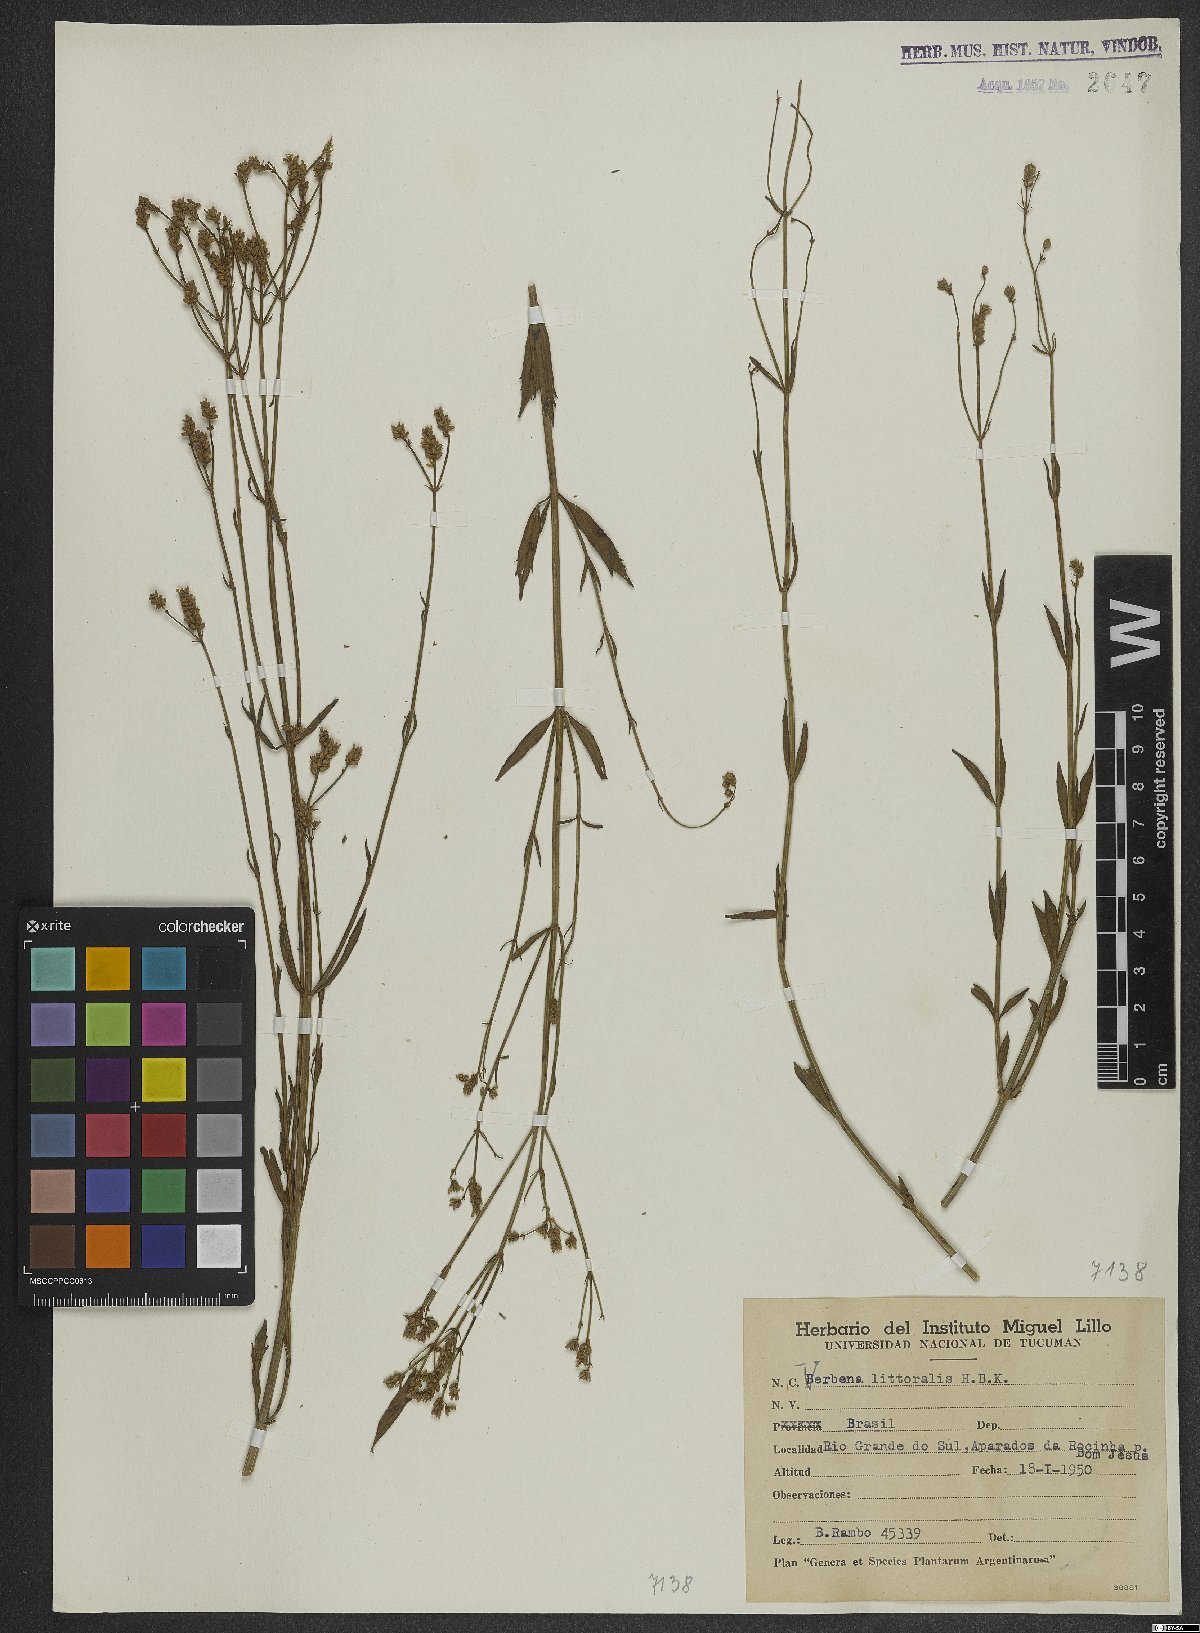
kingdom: Plantae
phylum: Tracheophyta
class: Magnoliopsida
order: Lamiales
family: Verbenaceae
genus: Verbena
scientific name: Verbena litoralis
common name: Seashore vervain
